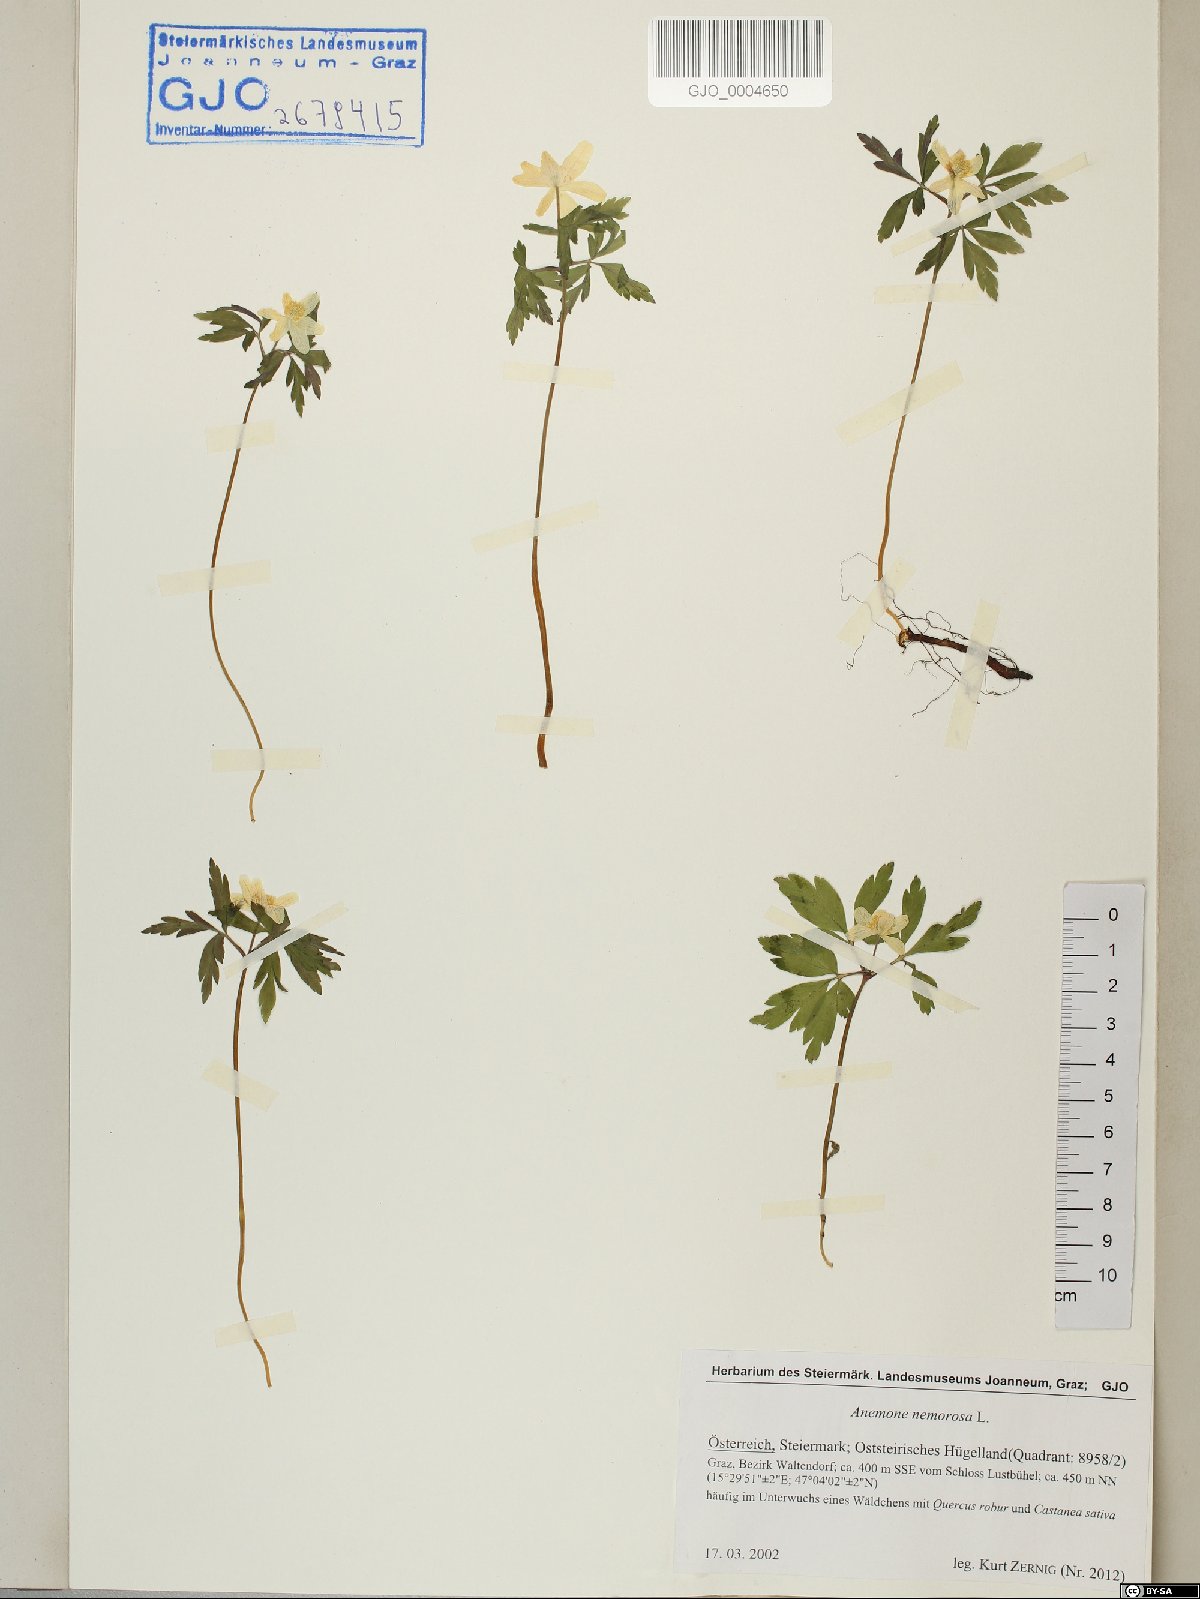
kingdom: Plantae
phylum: Tracheophyta
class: Magnoliopsida
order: Ranunculales
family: Ranunculaceae
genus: Anemone
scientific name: Anemone nemorosa
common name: Wood anemone
